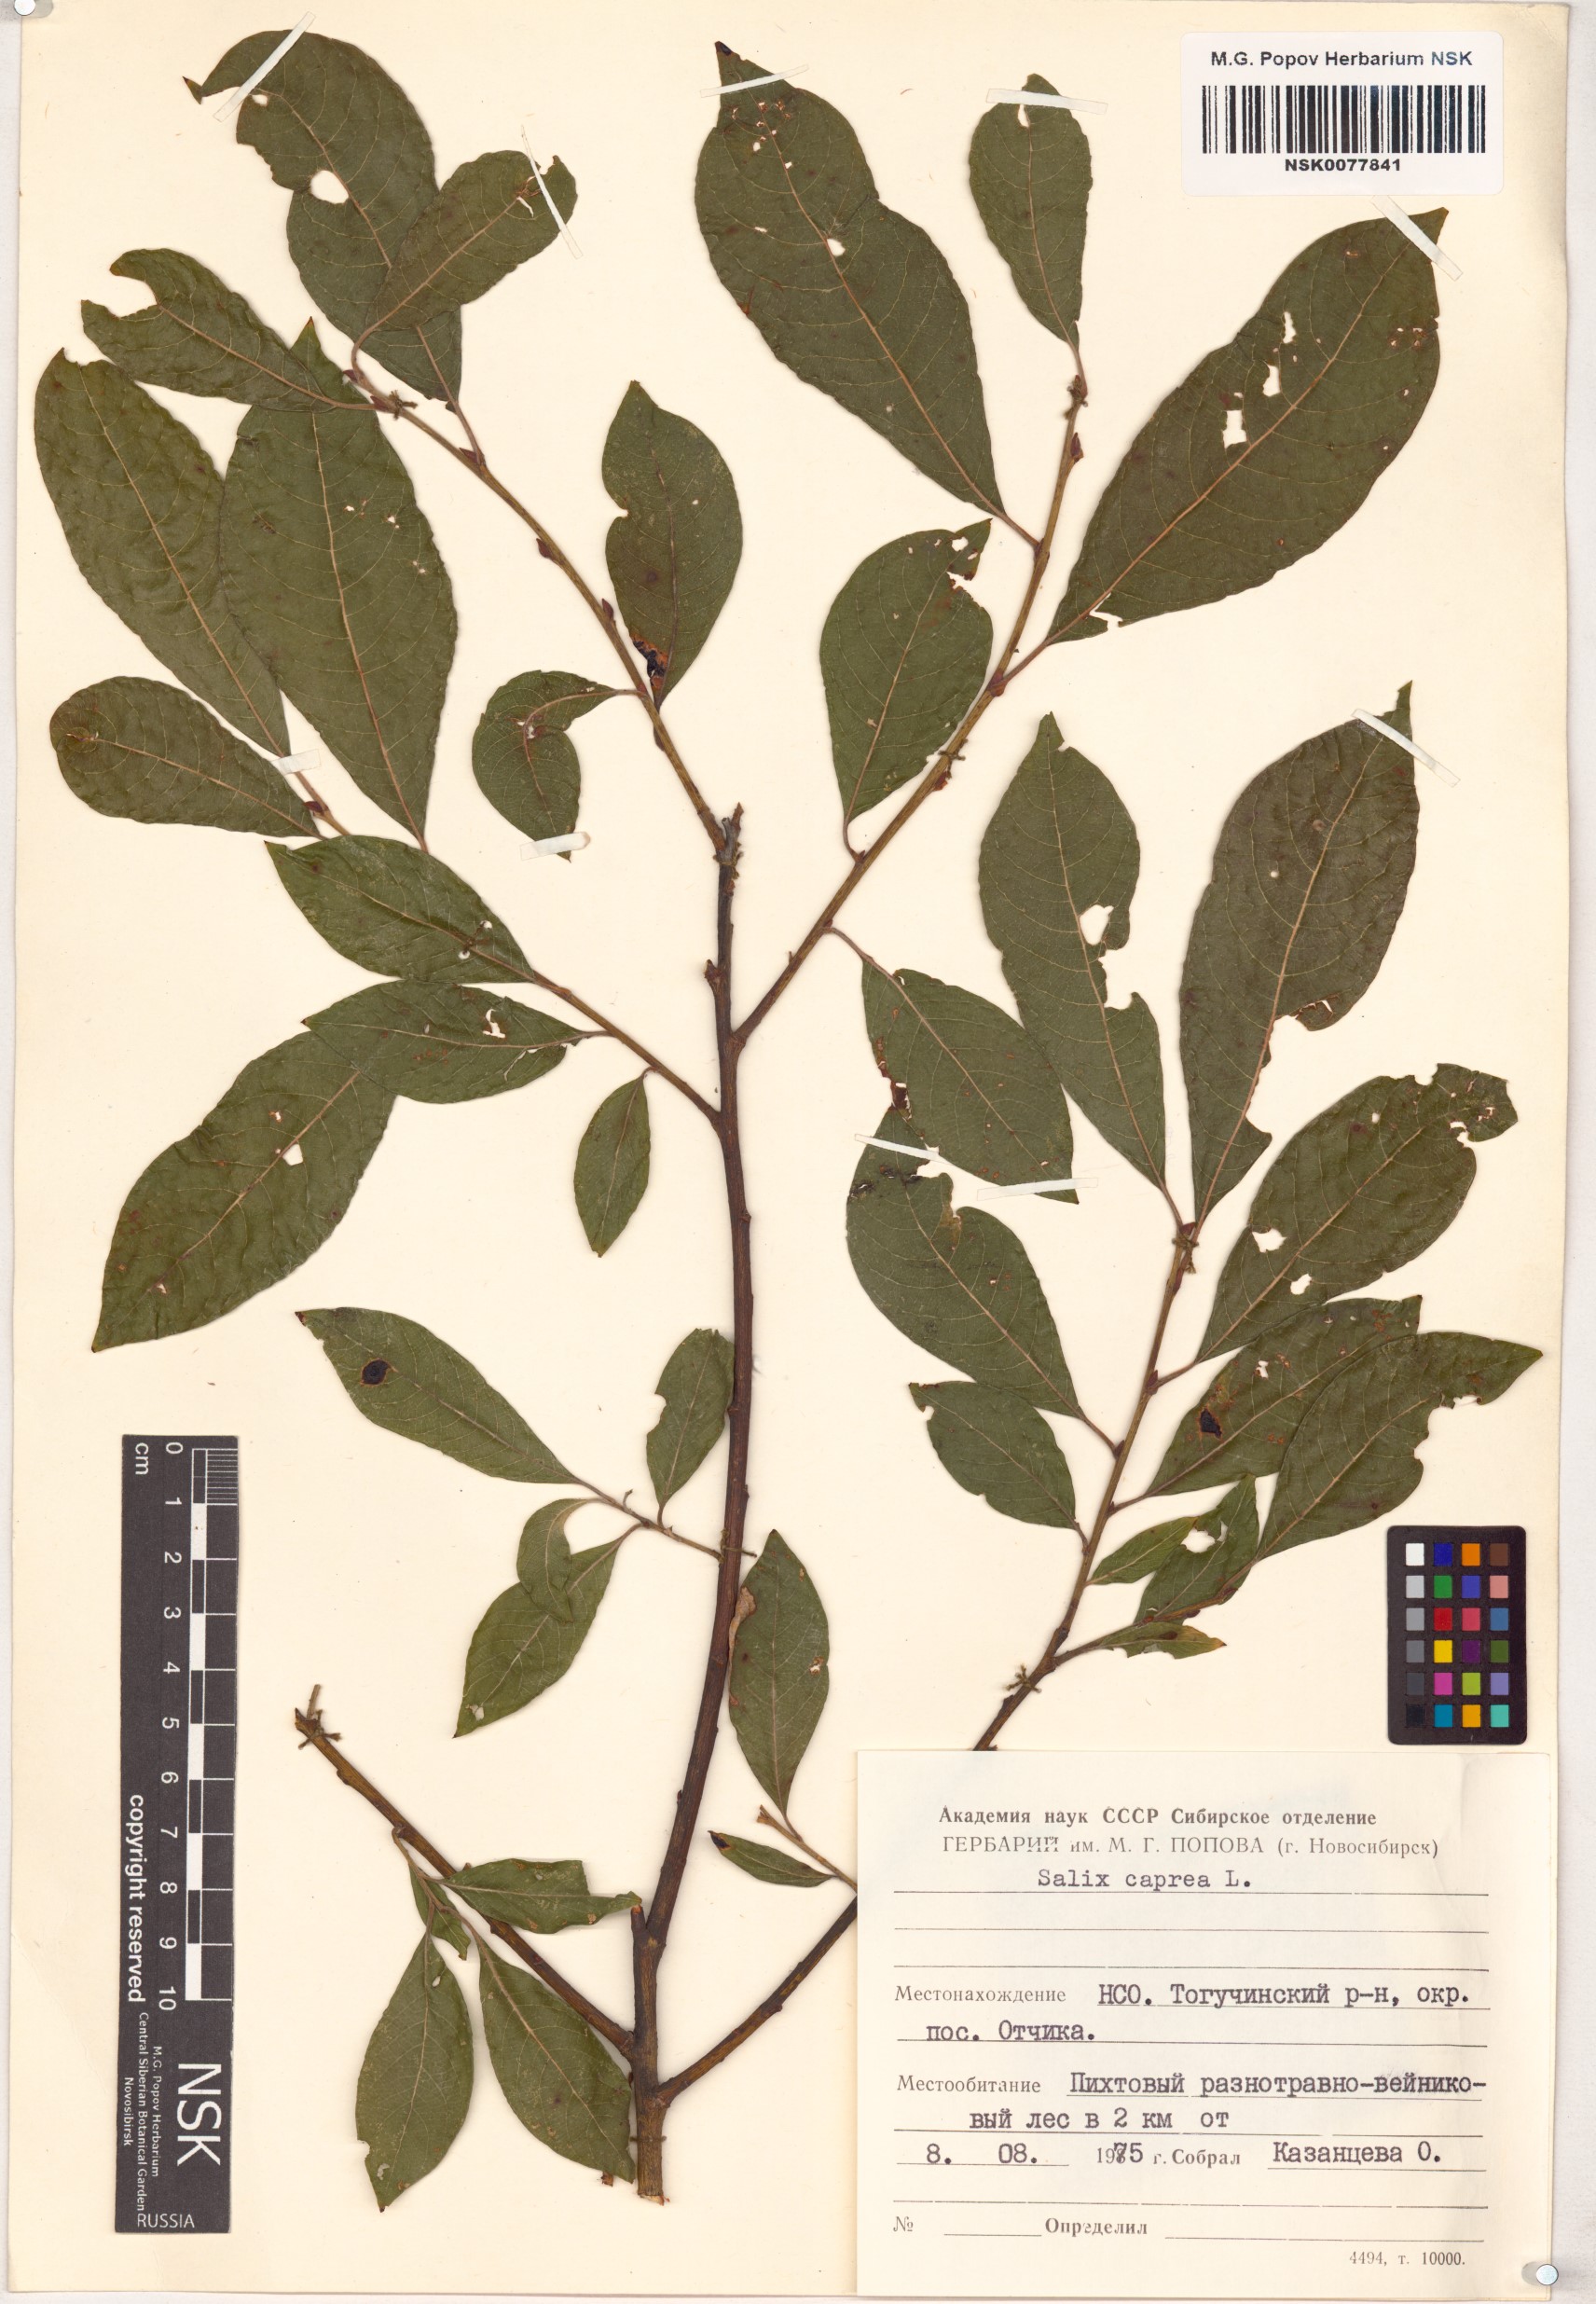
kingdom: Plantae
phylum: Tracheophyta
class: Magnoliopsida
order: Malpighiales
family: Salicaceae
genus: Salix
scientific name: Salix caprea
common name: Goat willow
